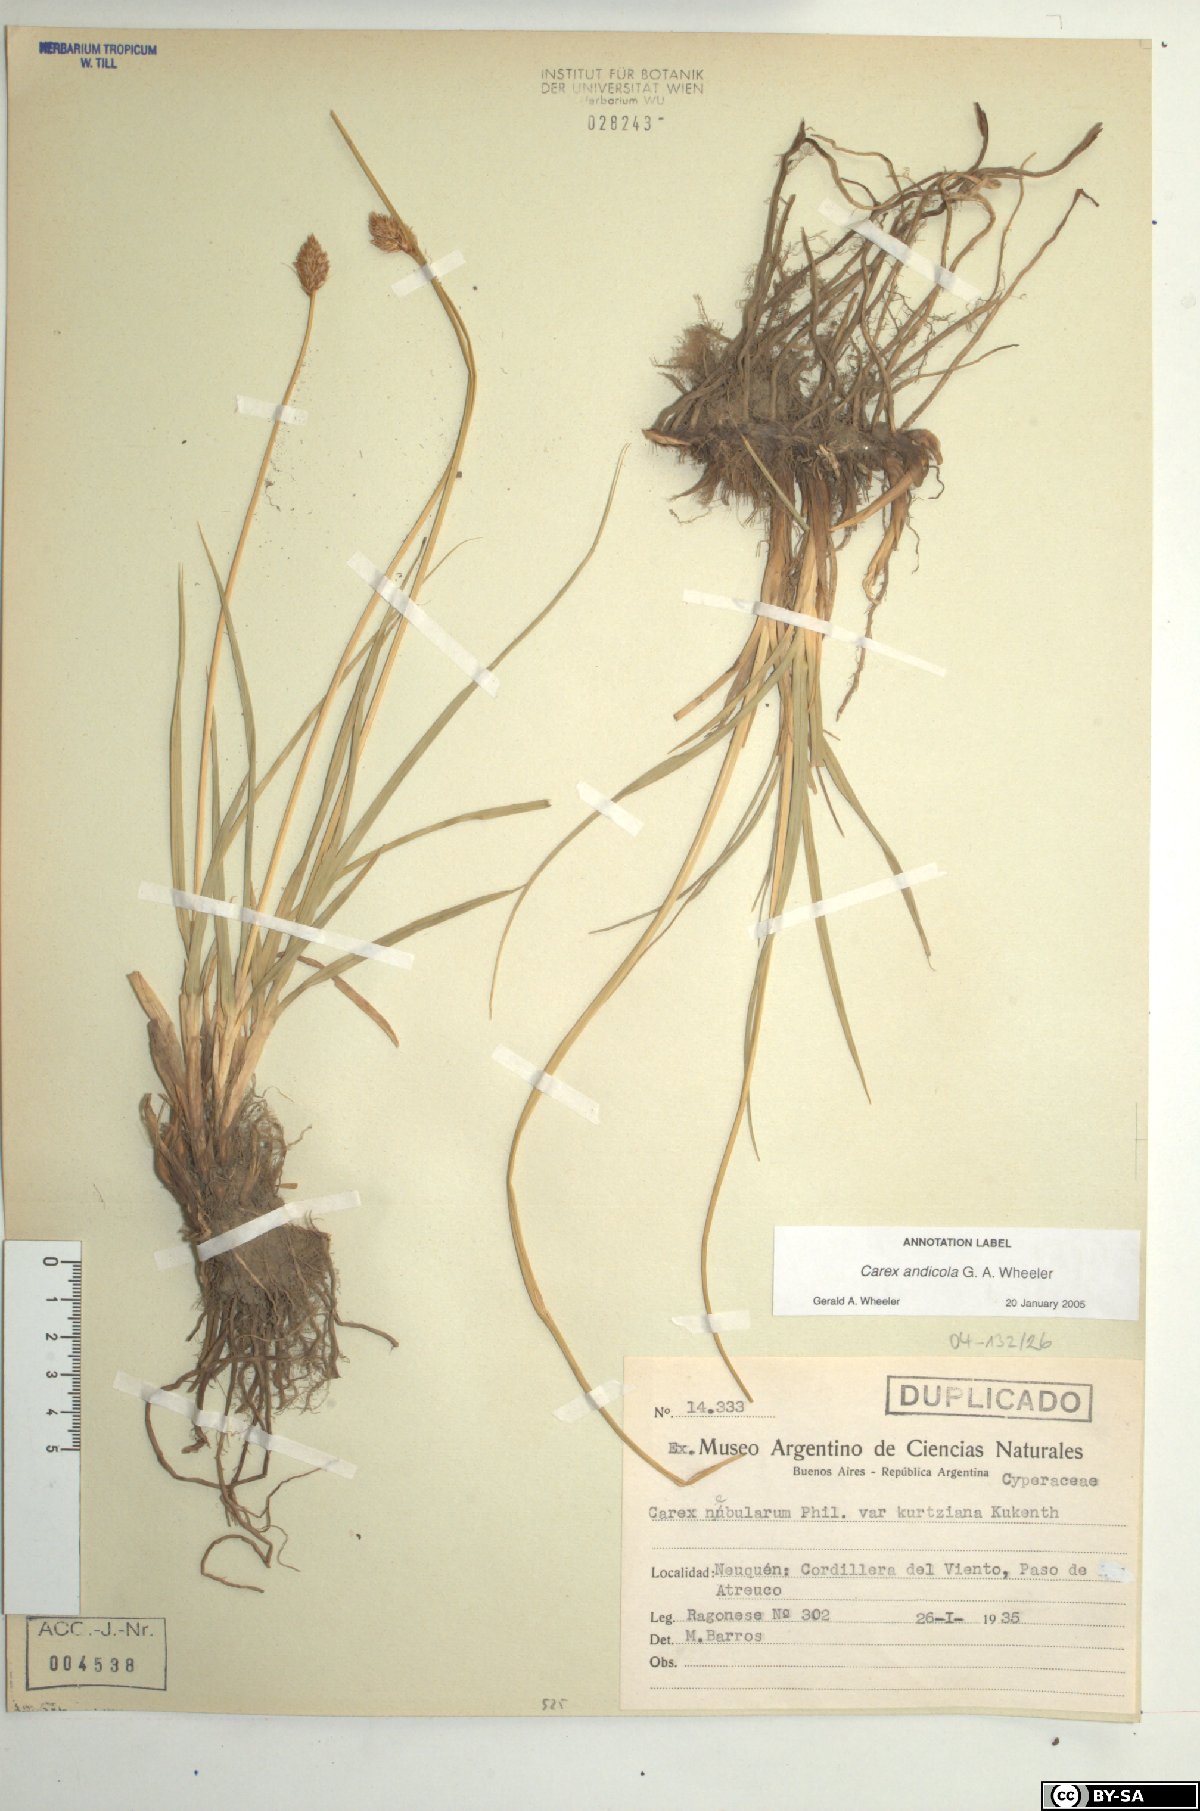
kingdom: Plantae
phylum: Tracheophyta
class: Liliopsida
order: Poales
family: Cyperaceae
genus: Carex
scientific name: Carex firmicaulis
